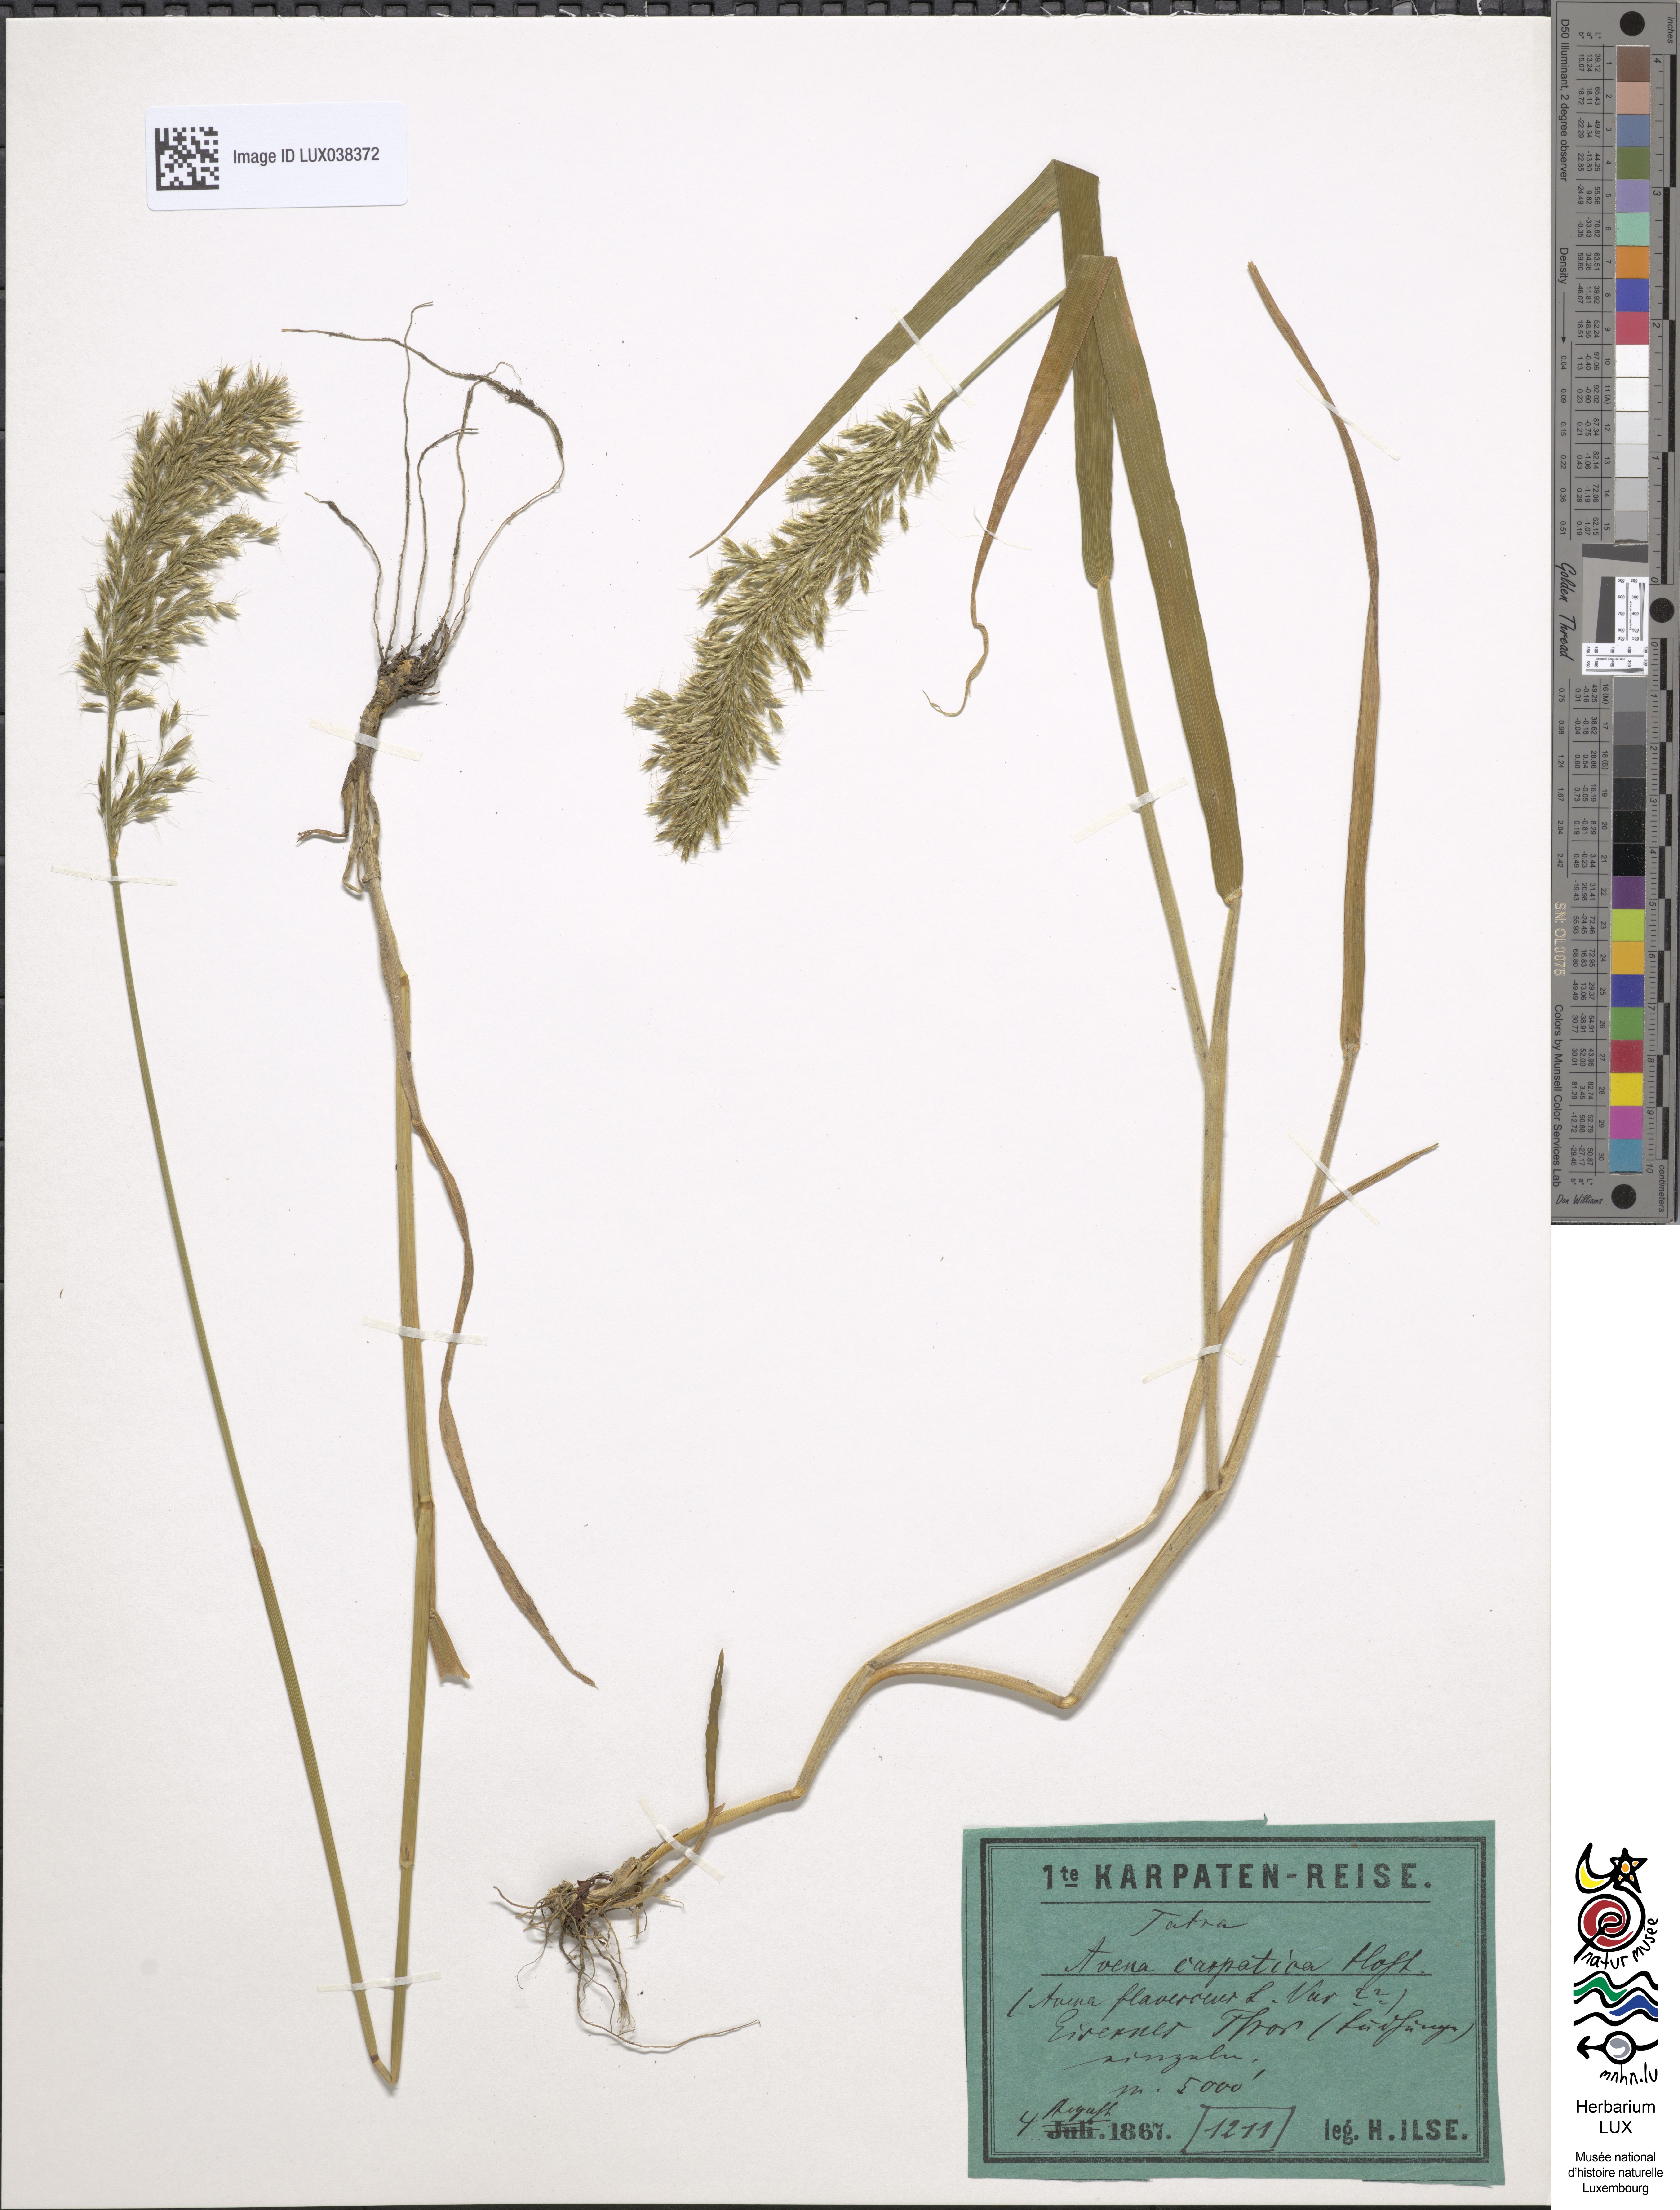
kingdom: Plantae
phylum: Tracheophyta
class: Liliopsida
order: Poales
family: Poaceae
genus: Avenula
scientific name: Avenula pubescens
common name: Downy alpine oatgrass
